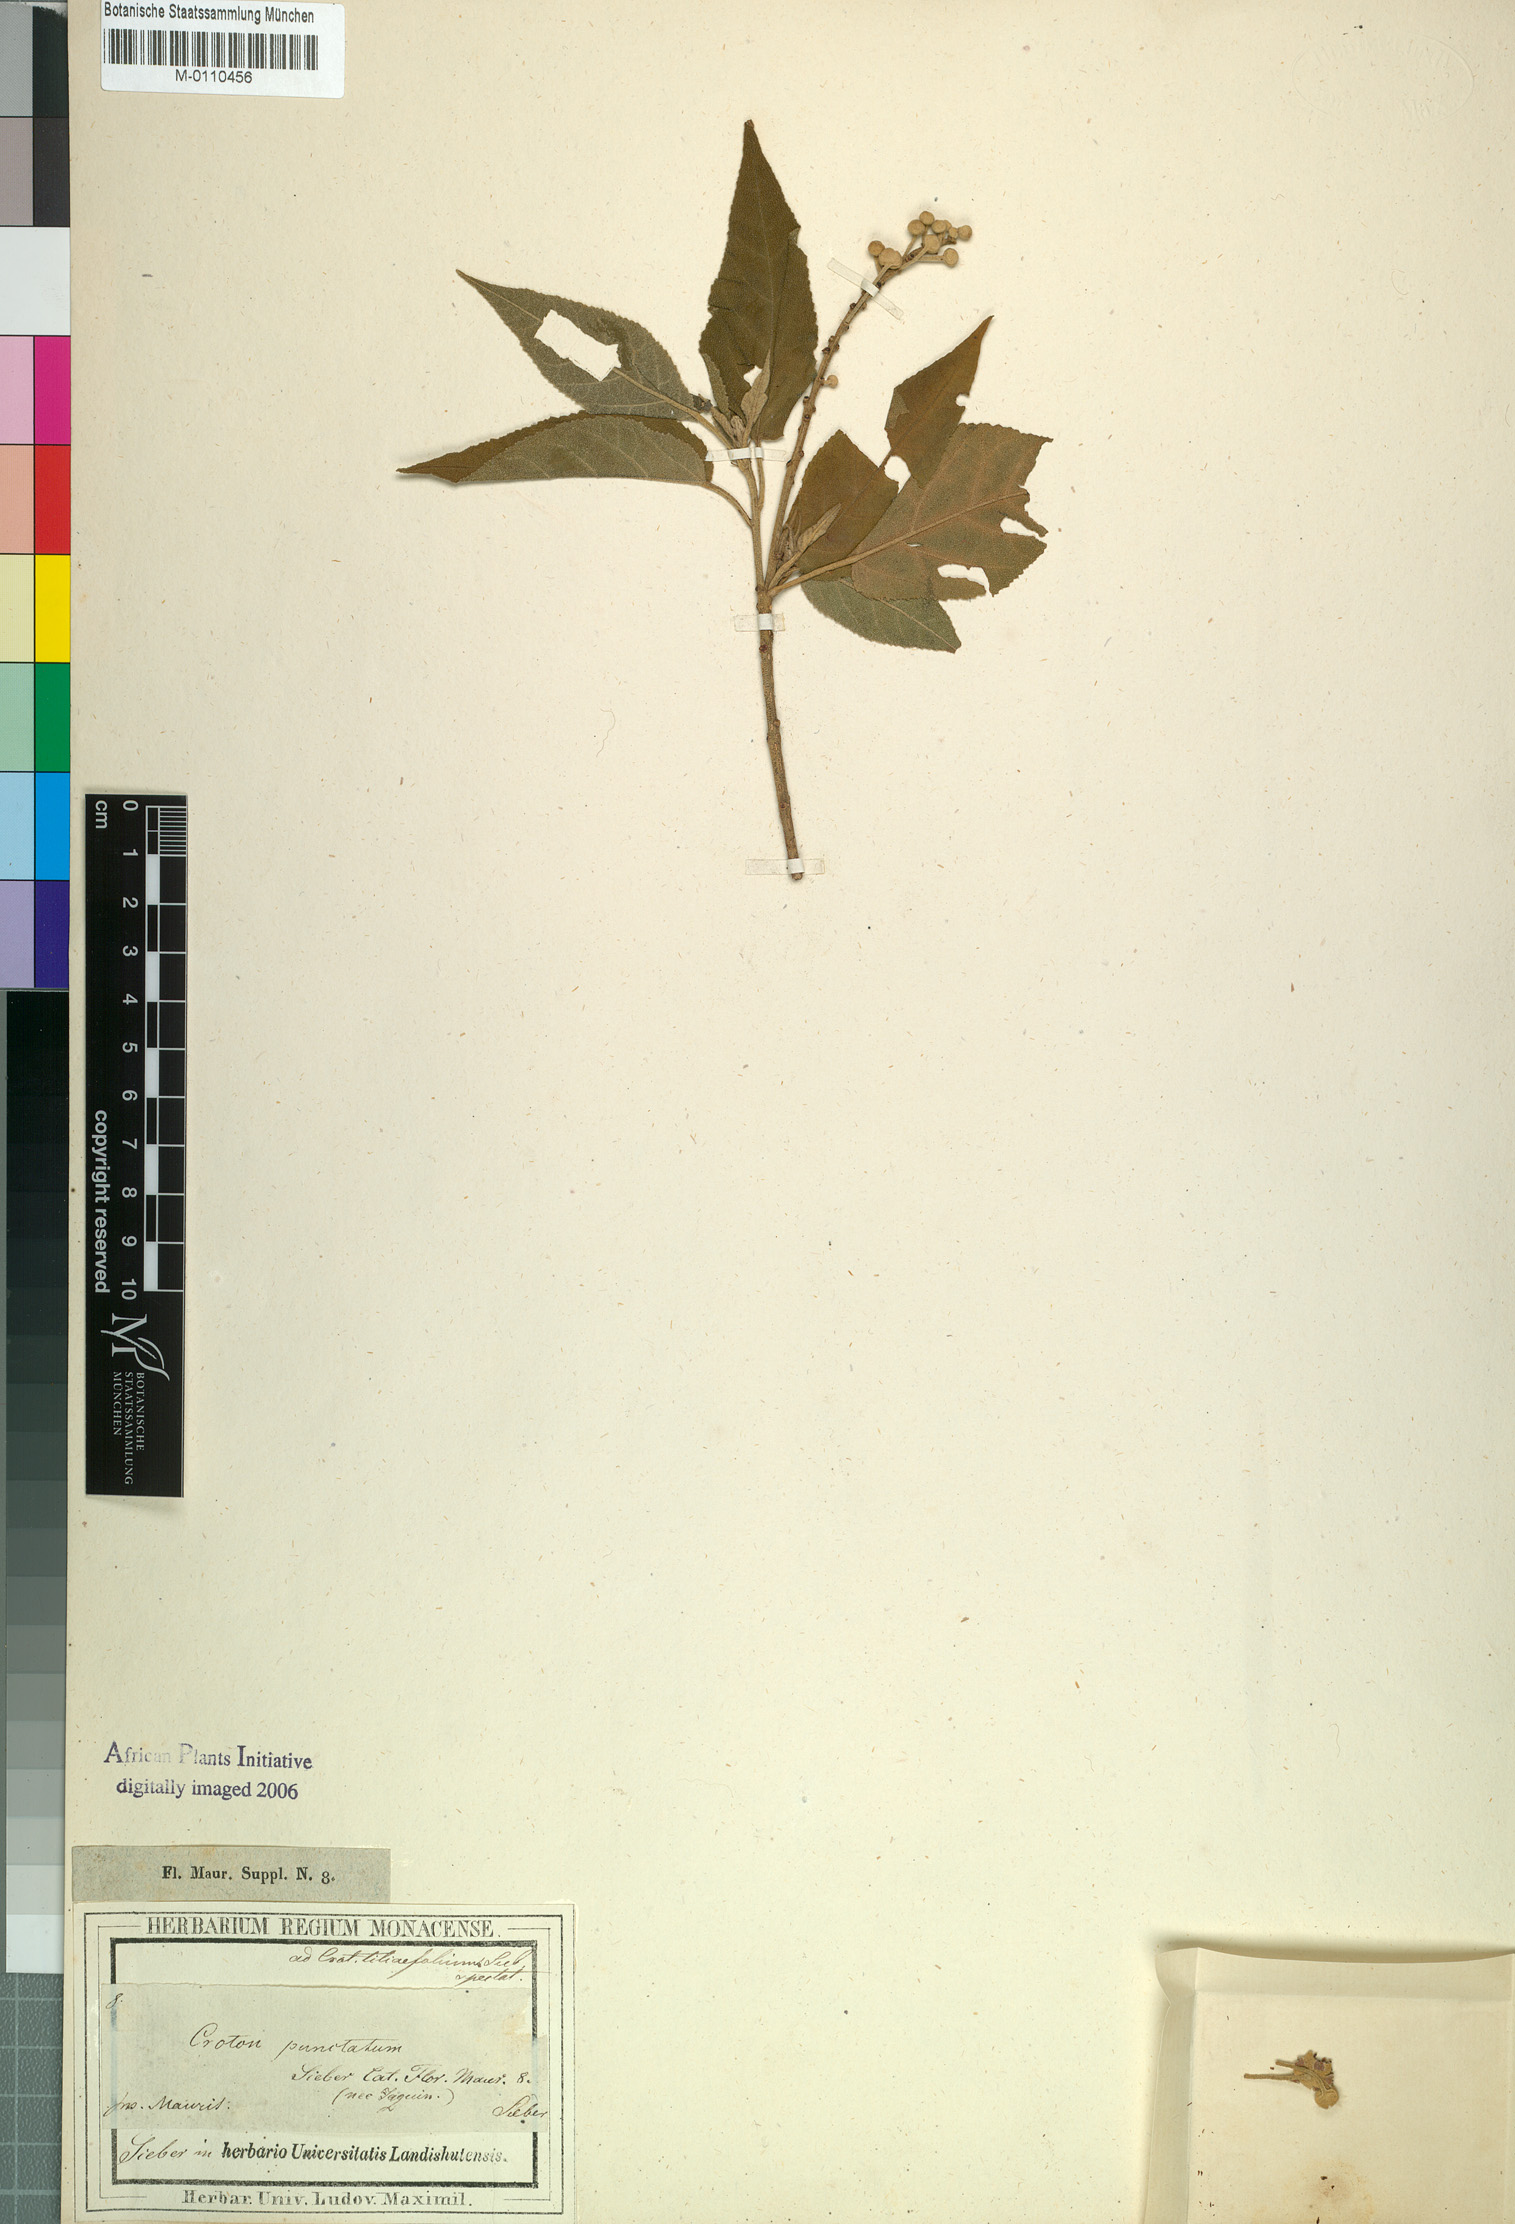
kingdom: Plantae
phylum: Tracheophyta
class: Magnoliopsida
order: Malpighiales
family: Euphorbiaceae
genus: Croton
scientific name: Croton mauritianus
